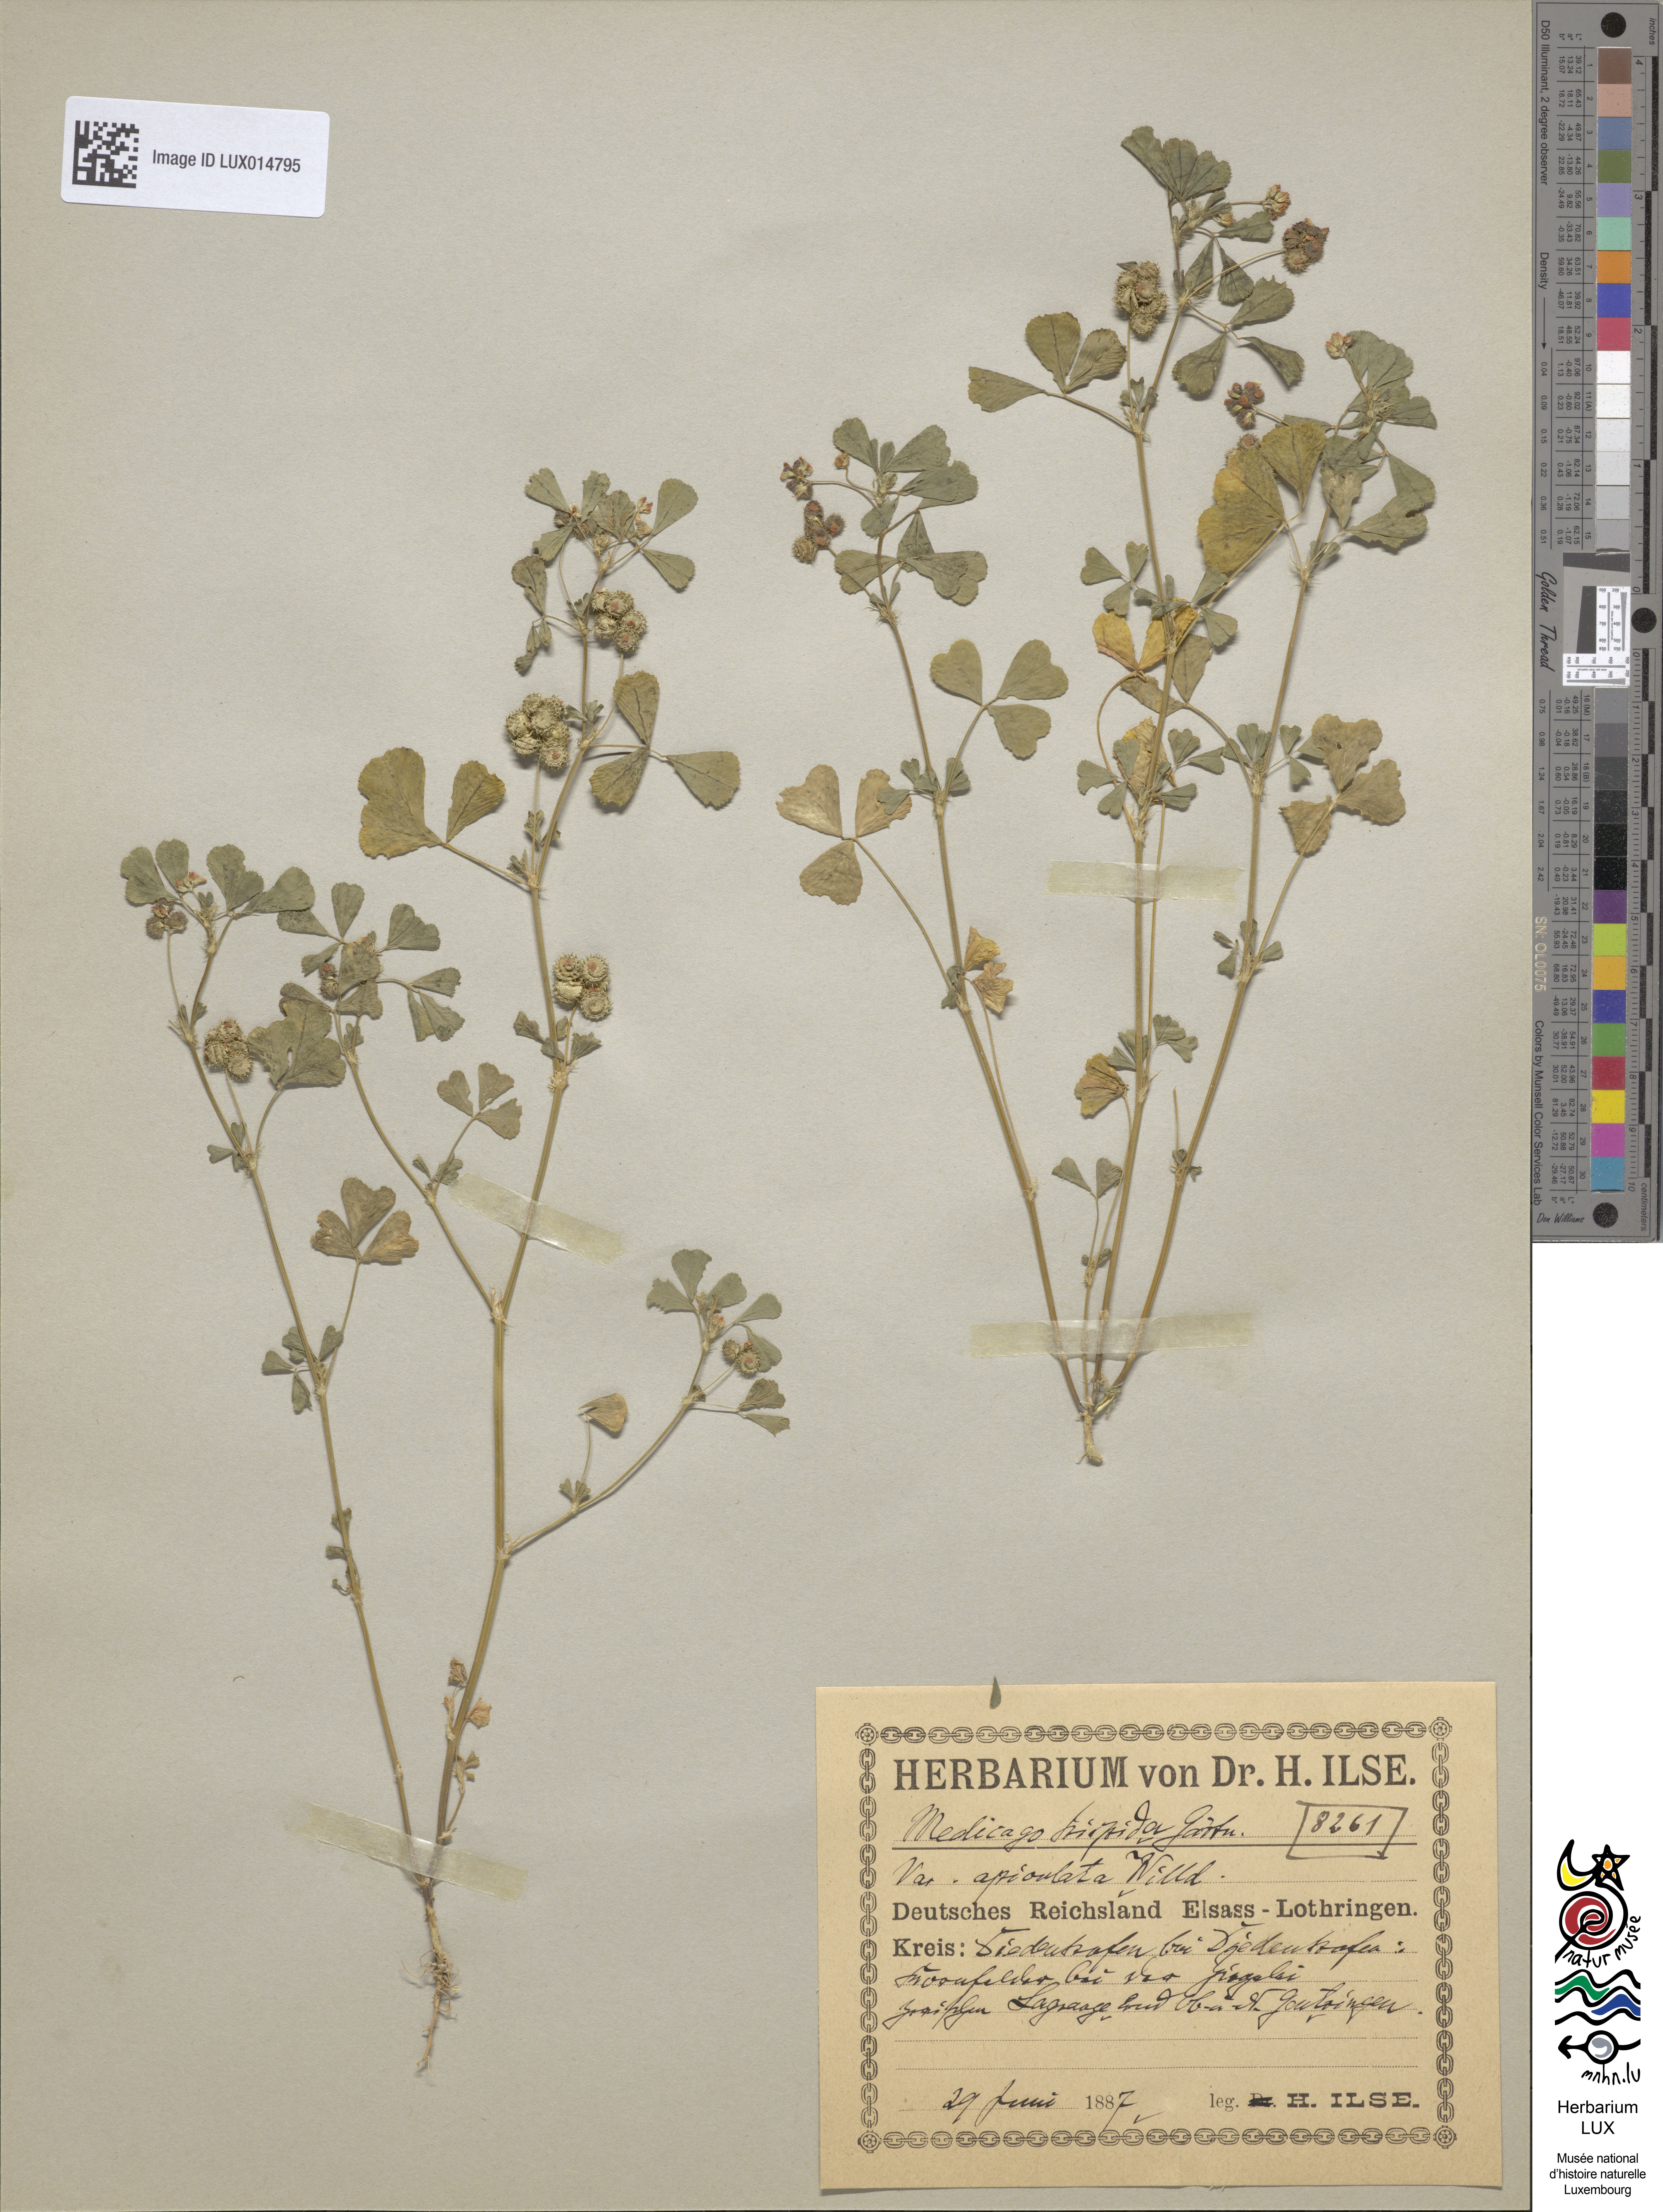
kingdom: Plantae
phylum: Tracheophyta
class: Magnoliopsida
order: Fabales
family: Fabaceae
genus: Medicago
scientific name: Medicago polymorpha
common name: Burclover
